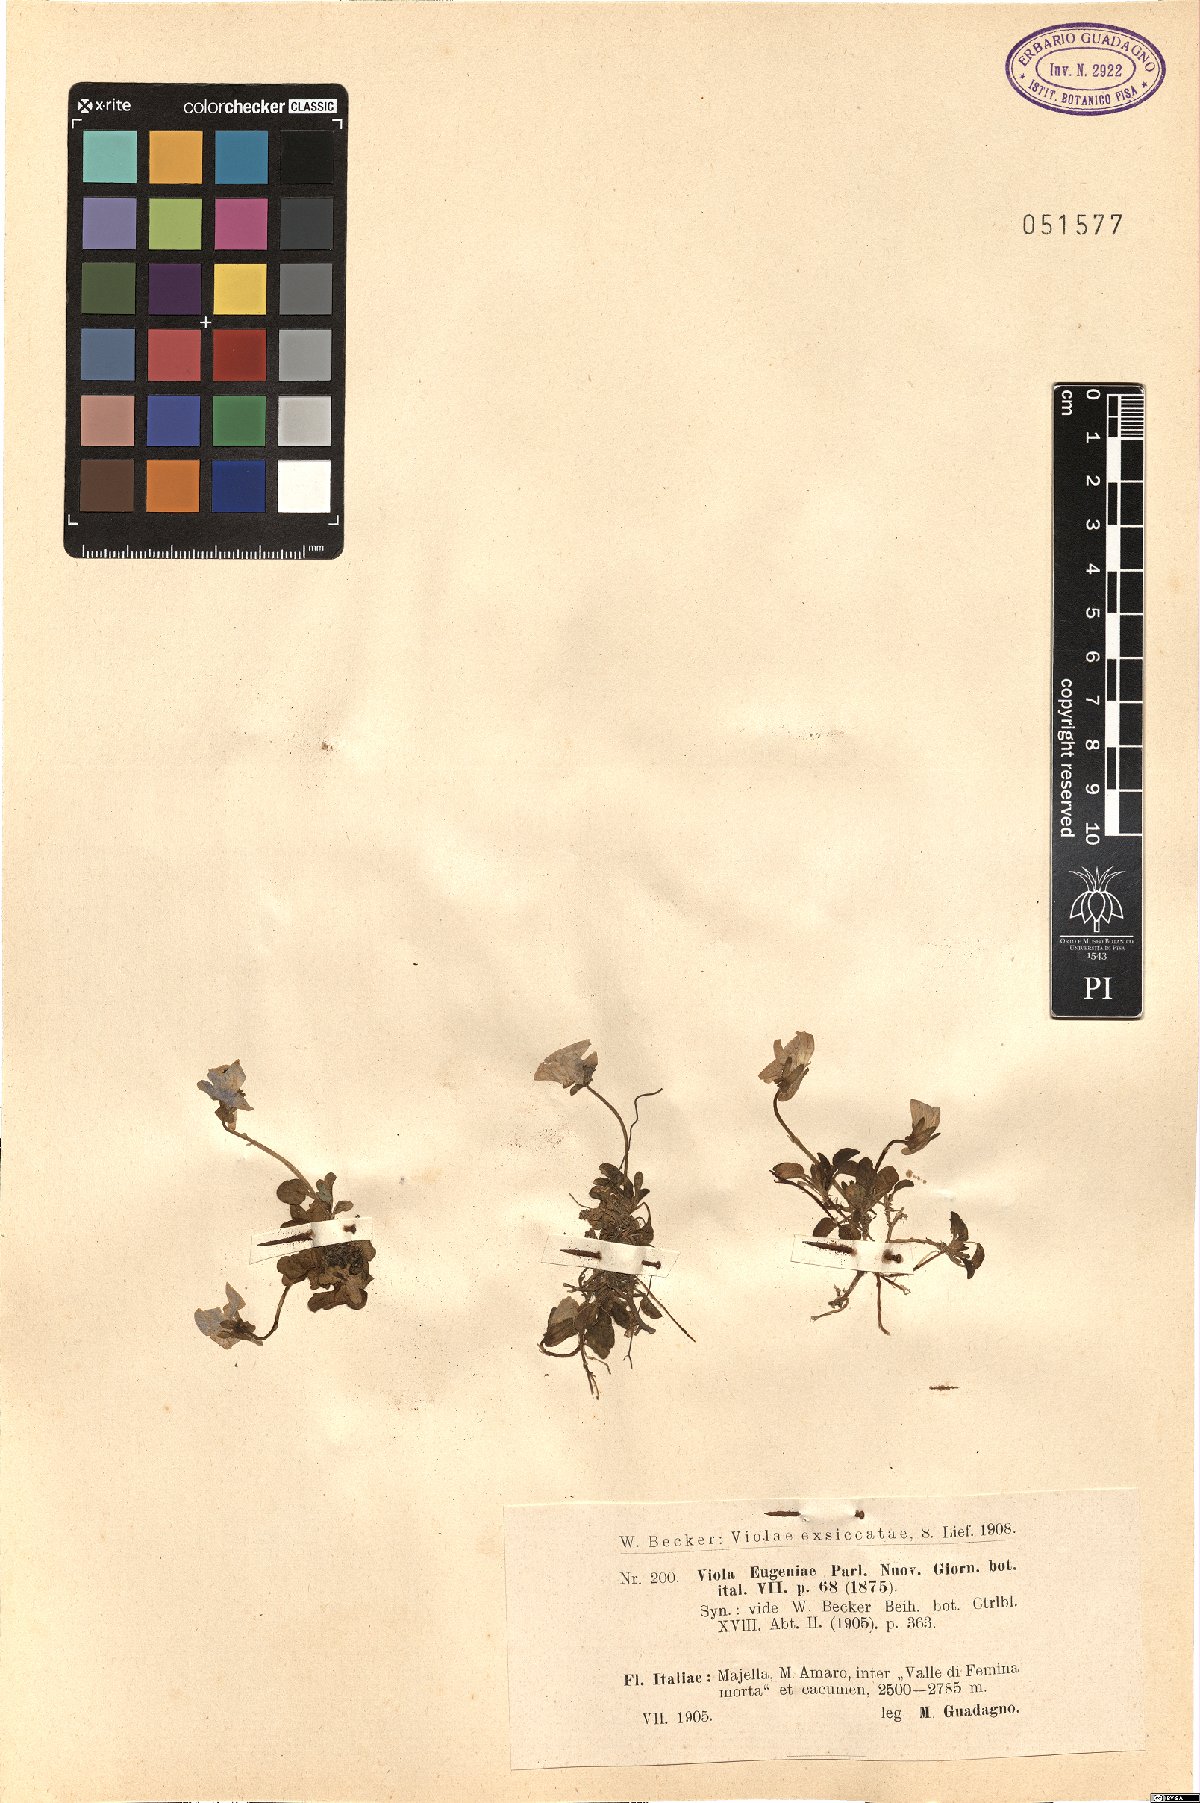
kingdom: Plantae
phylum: Tracheophyta
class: Magnoliopsida
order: Malpighiales
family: Violaceae
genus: Viola
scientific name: Viola eugeniae
